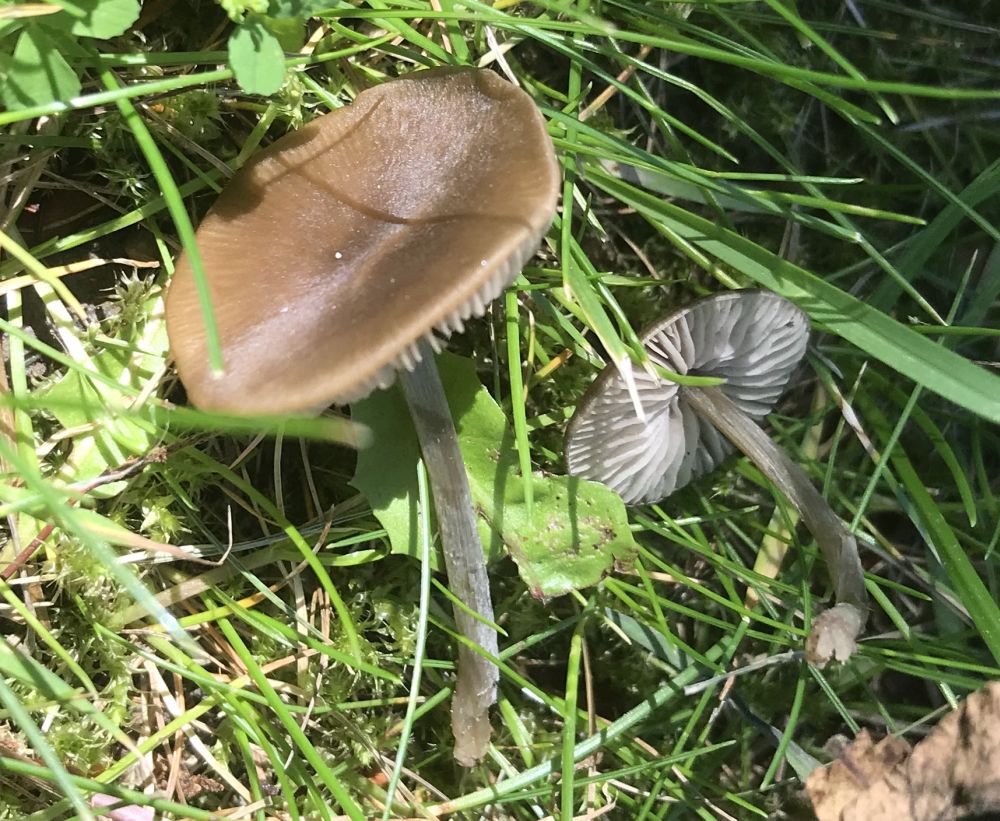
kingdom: Fungi
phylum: Basidiomycota
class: Agaricomycetes
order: Agaricales
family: Entolomataceae
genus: Entoloma
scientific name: Entoloma
